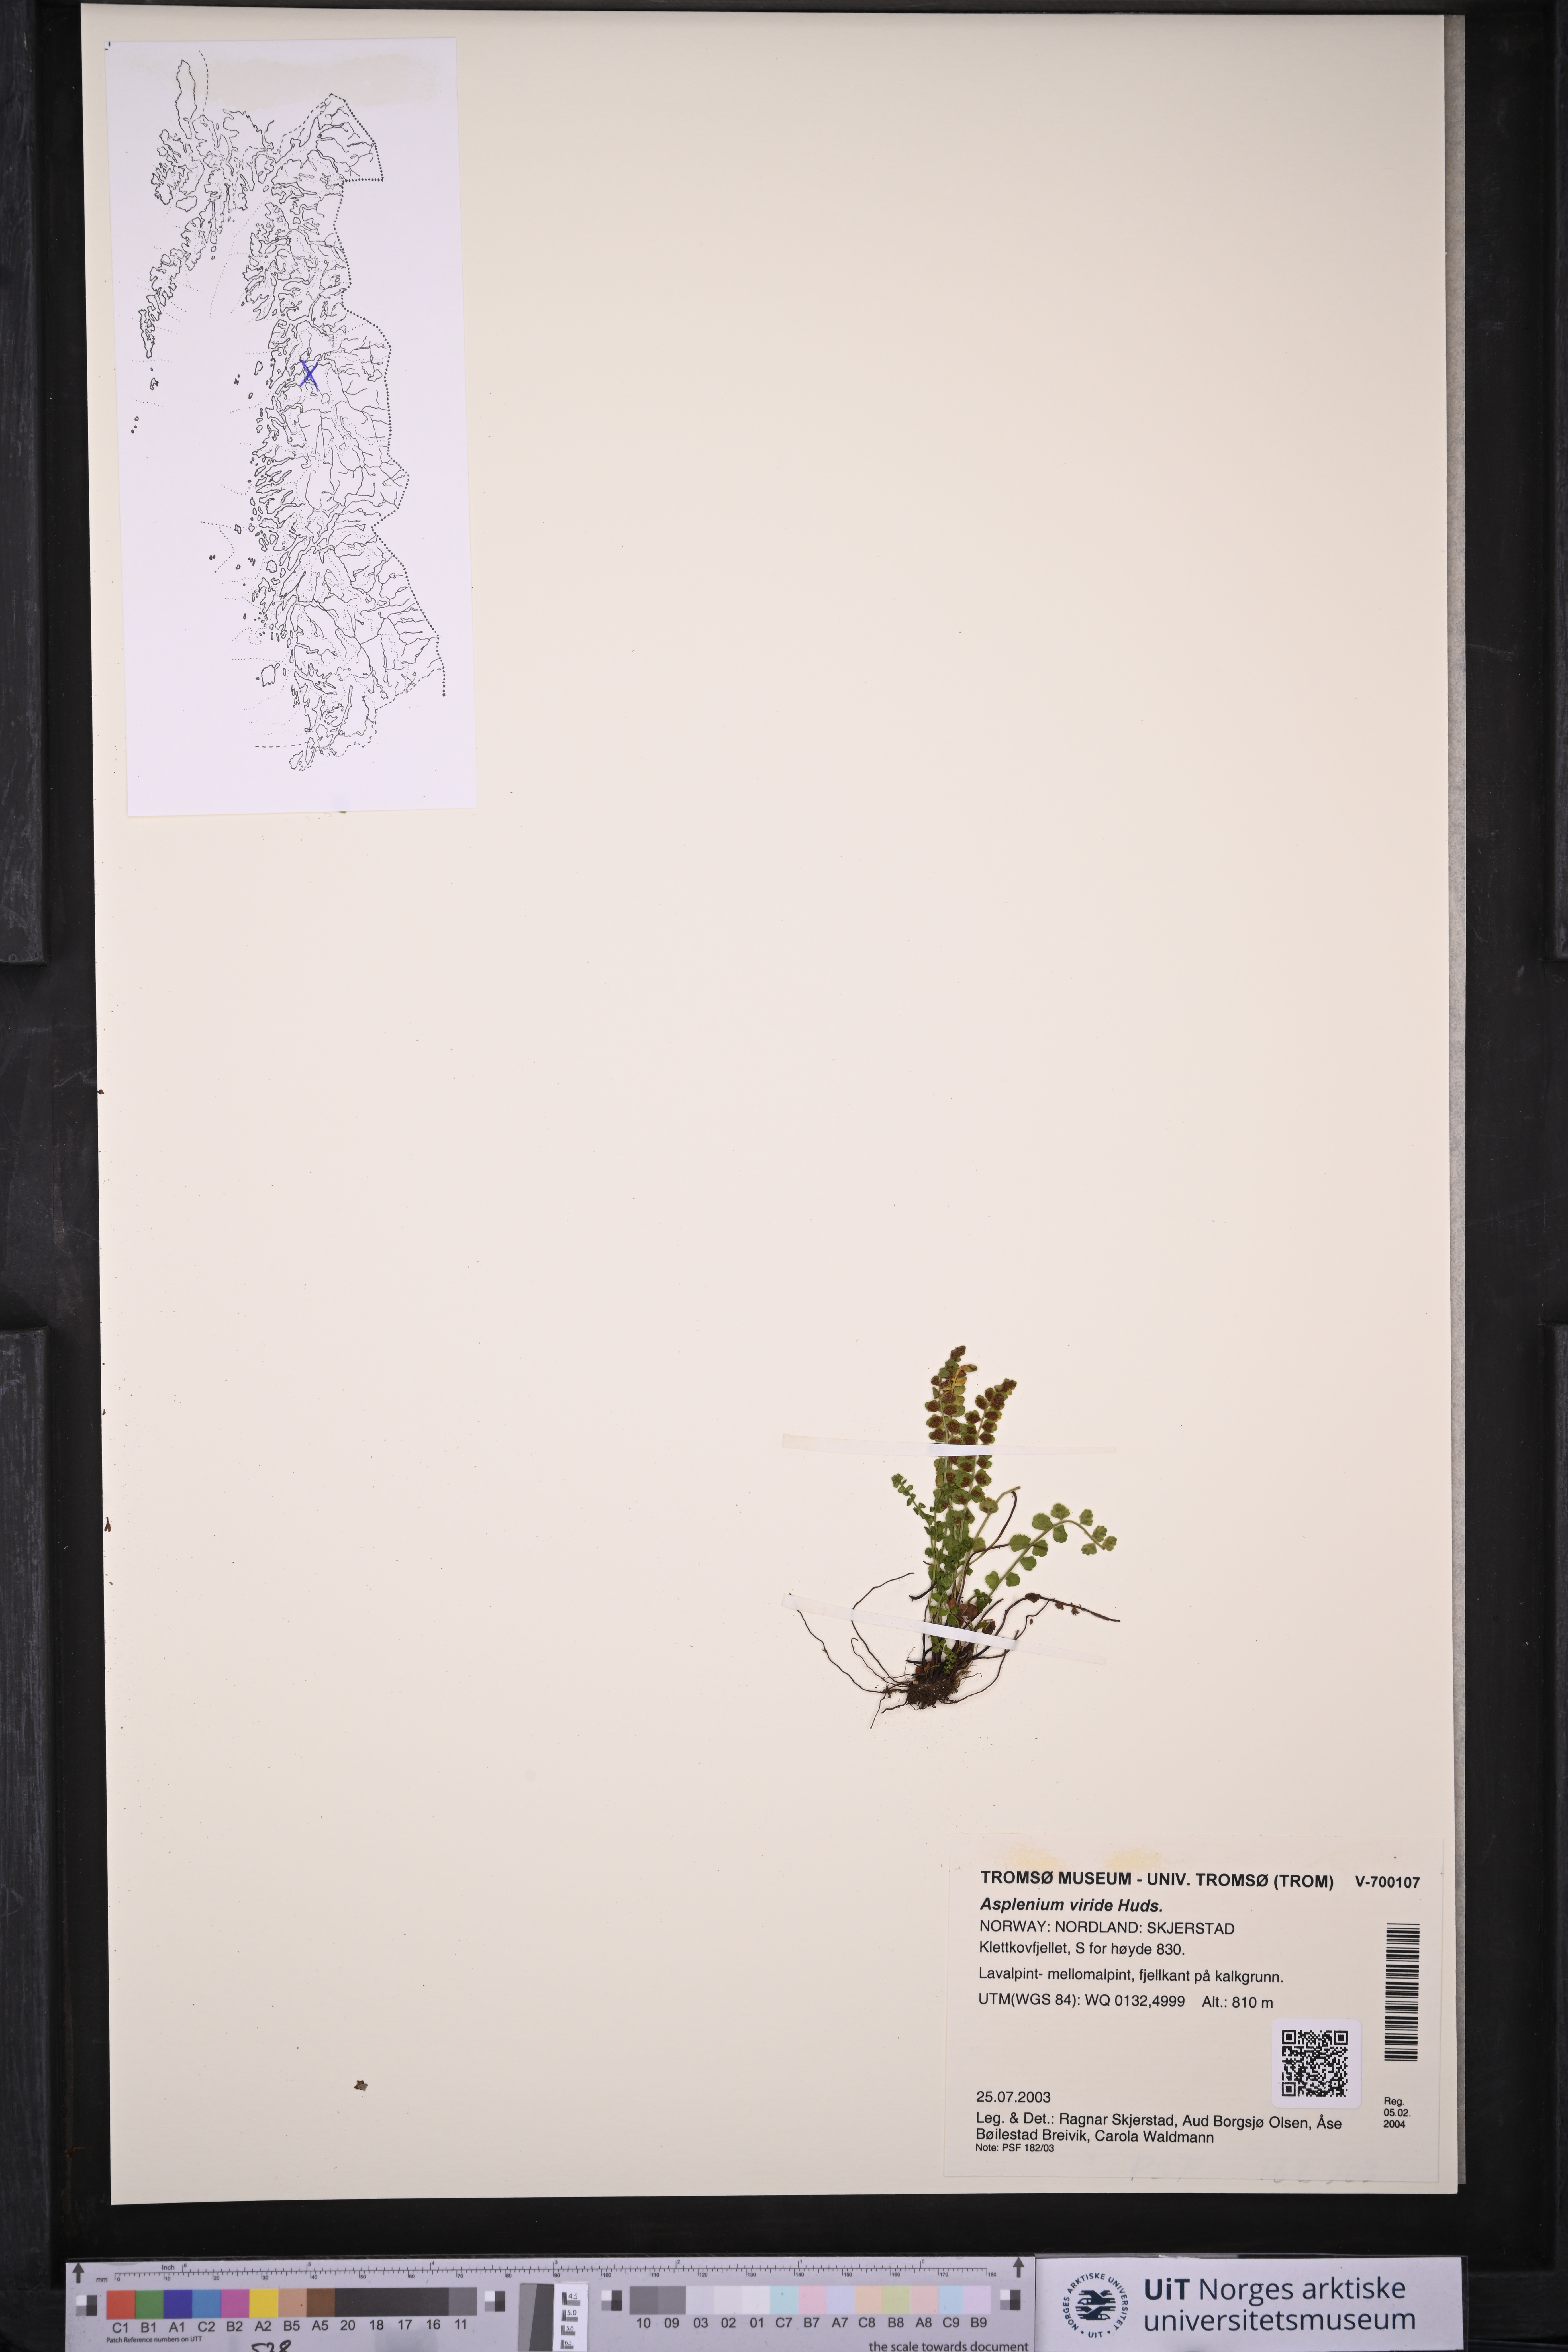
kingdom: Plantae
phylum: Tracheophyta
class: Polypodiopsida
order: Polypodiales
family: Aspleniaceae
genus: Asplenium
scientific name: Asplenium viride
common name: Green spleenwort
